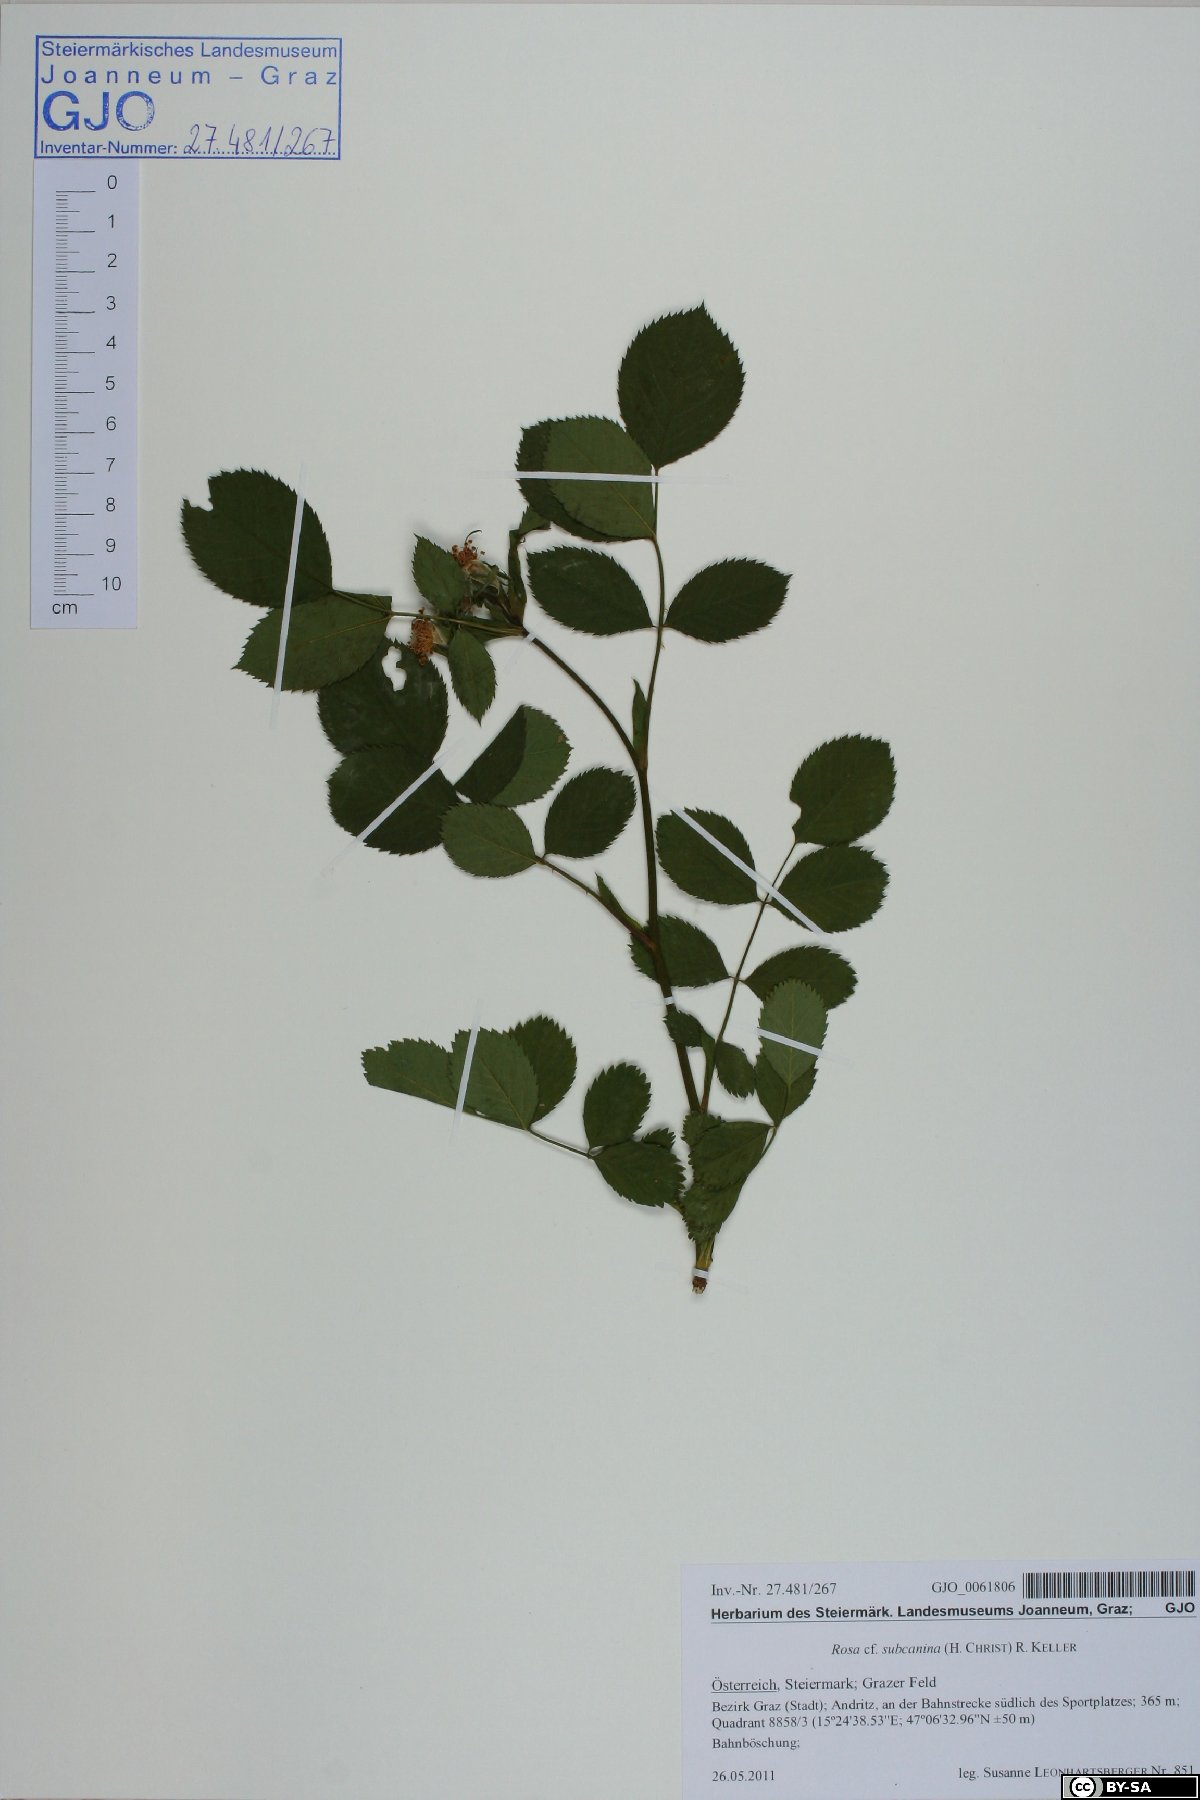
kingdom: Plantae
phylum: Tracheophyta
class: Magnoliopsida
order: Rosales
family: Rosaceae
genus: Rosa
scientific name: Rosa subcanina
